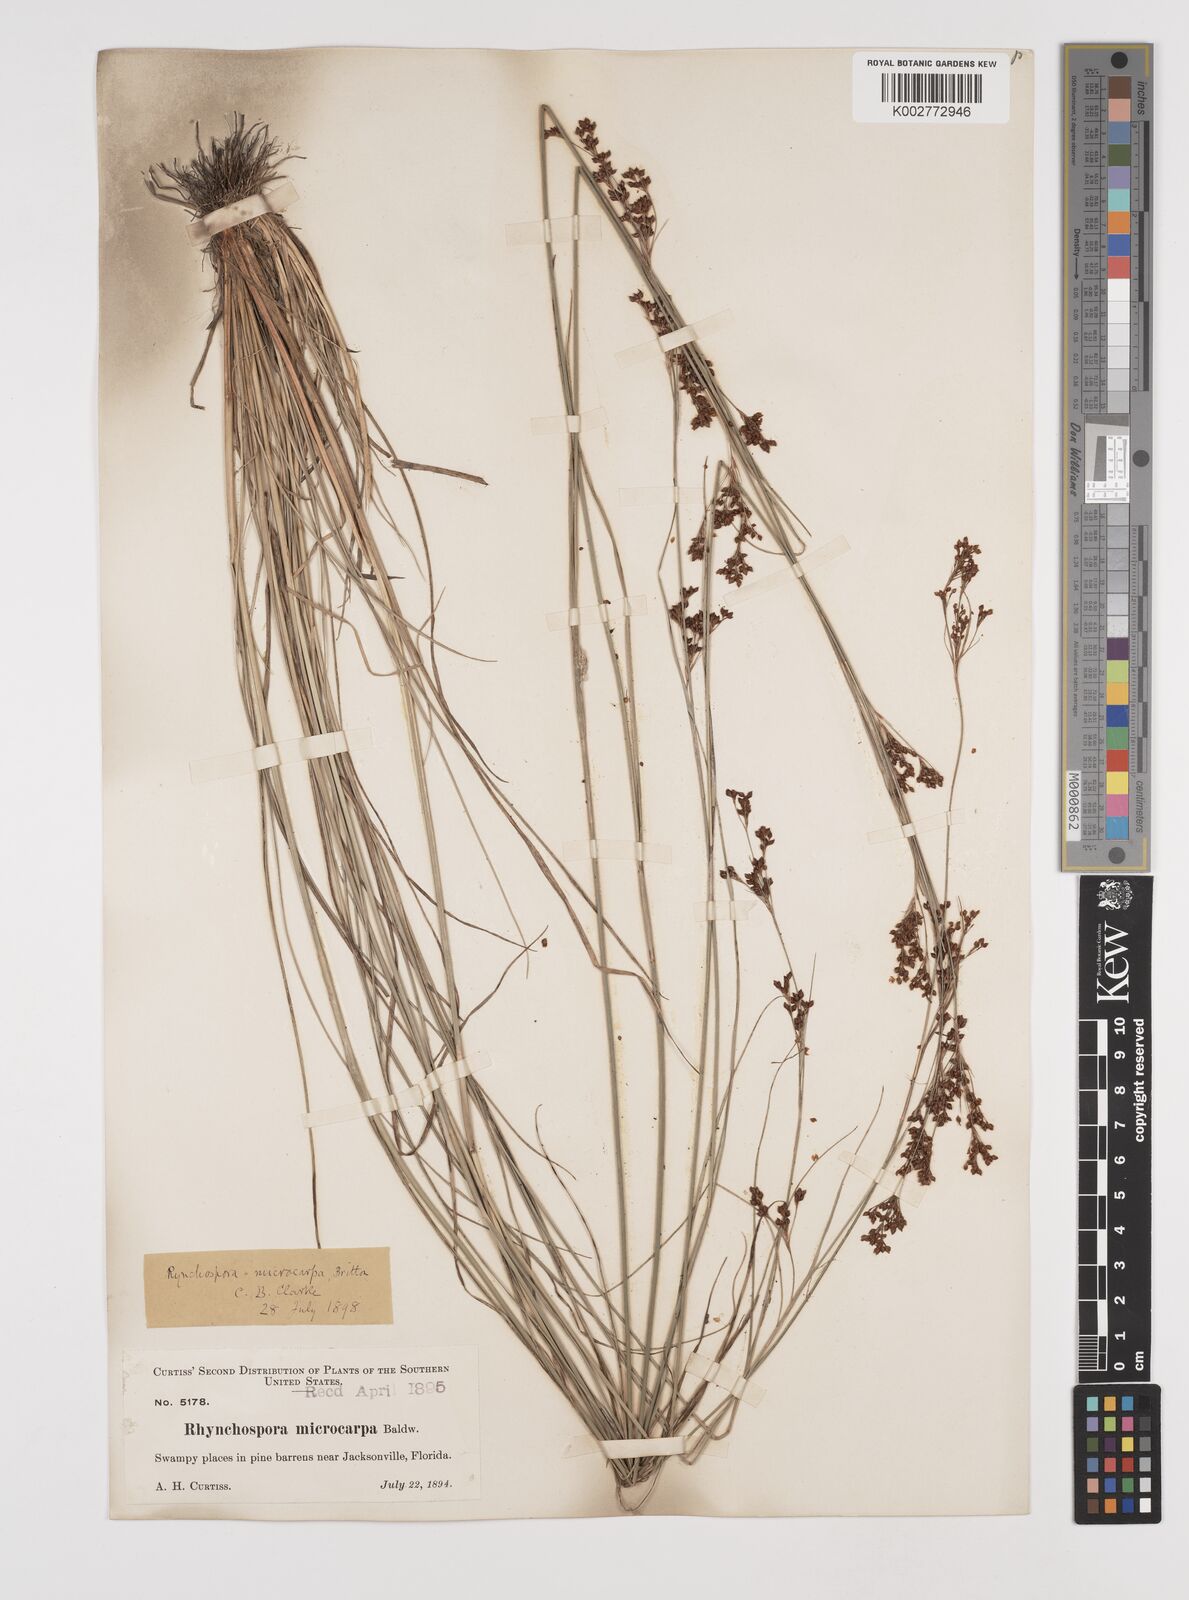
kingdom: Plantae
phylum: Tracheophyta
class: Liliopsida
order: Poales
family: Cyperaceae
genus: Rhynchospora
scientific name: Rhynchospora microcarpa
